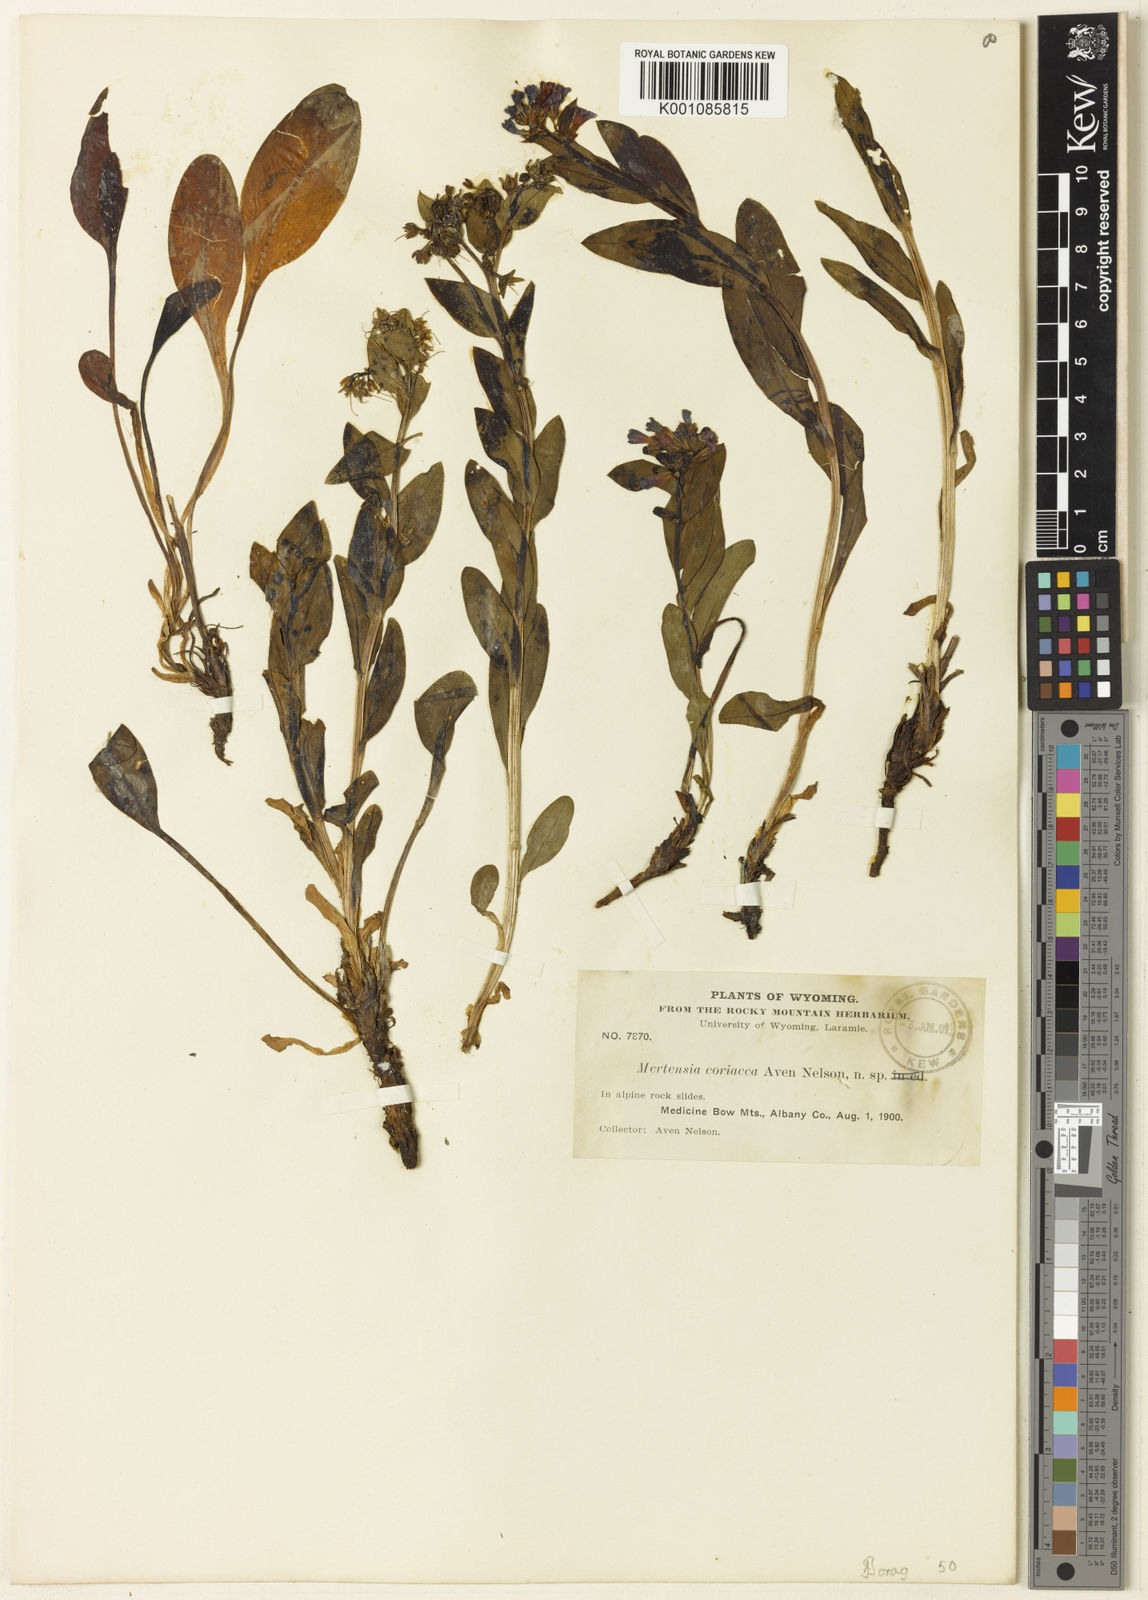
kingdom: Plantae
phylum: Tracheophyta
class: Magnoliopsida
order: Boraginales
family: Boraginaceae
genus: Mertensia
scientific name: Mertensia lanceolata
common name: Lance-leaved bluebells
